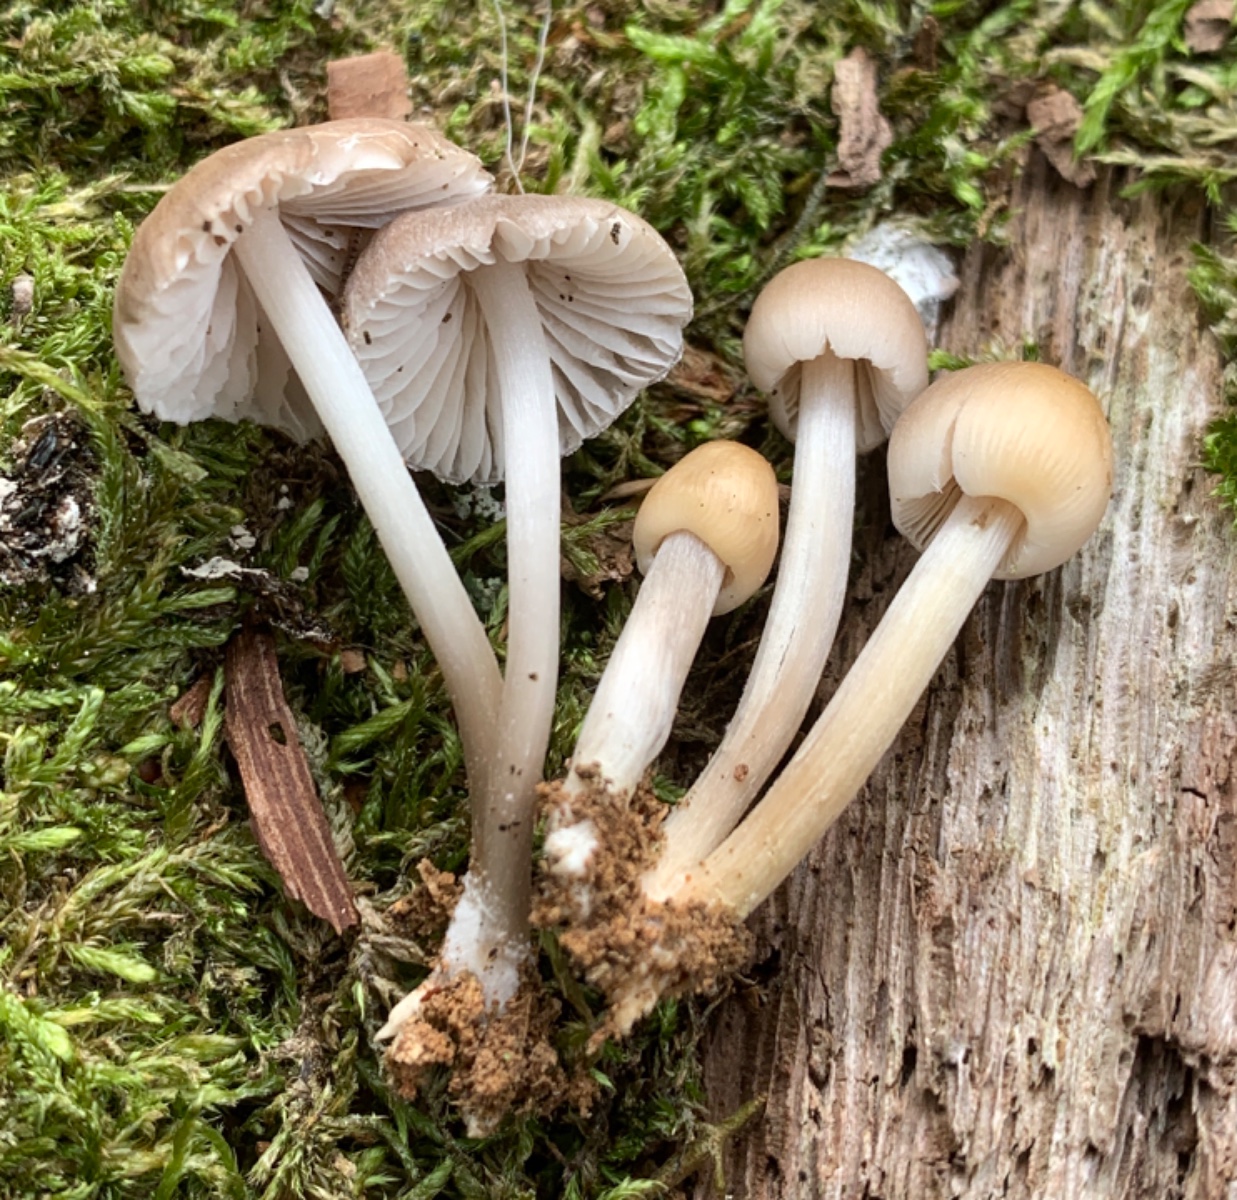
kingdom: Fungi
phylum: Basidiomycota
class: Agaricomycetes
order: Agaricales
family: Mycenaceae
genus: Mycena
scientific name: Mycena galericulata
